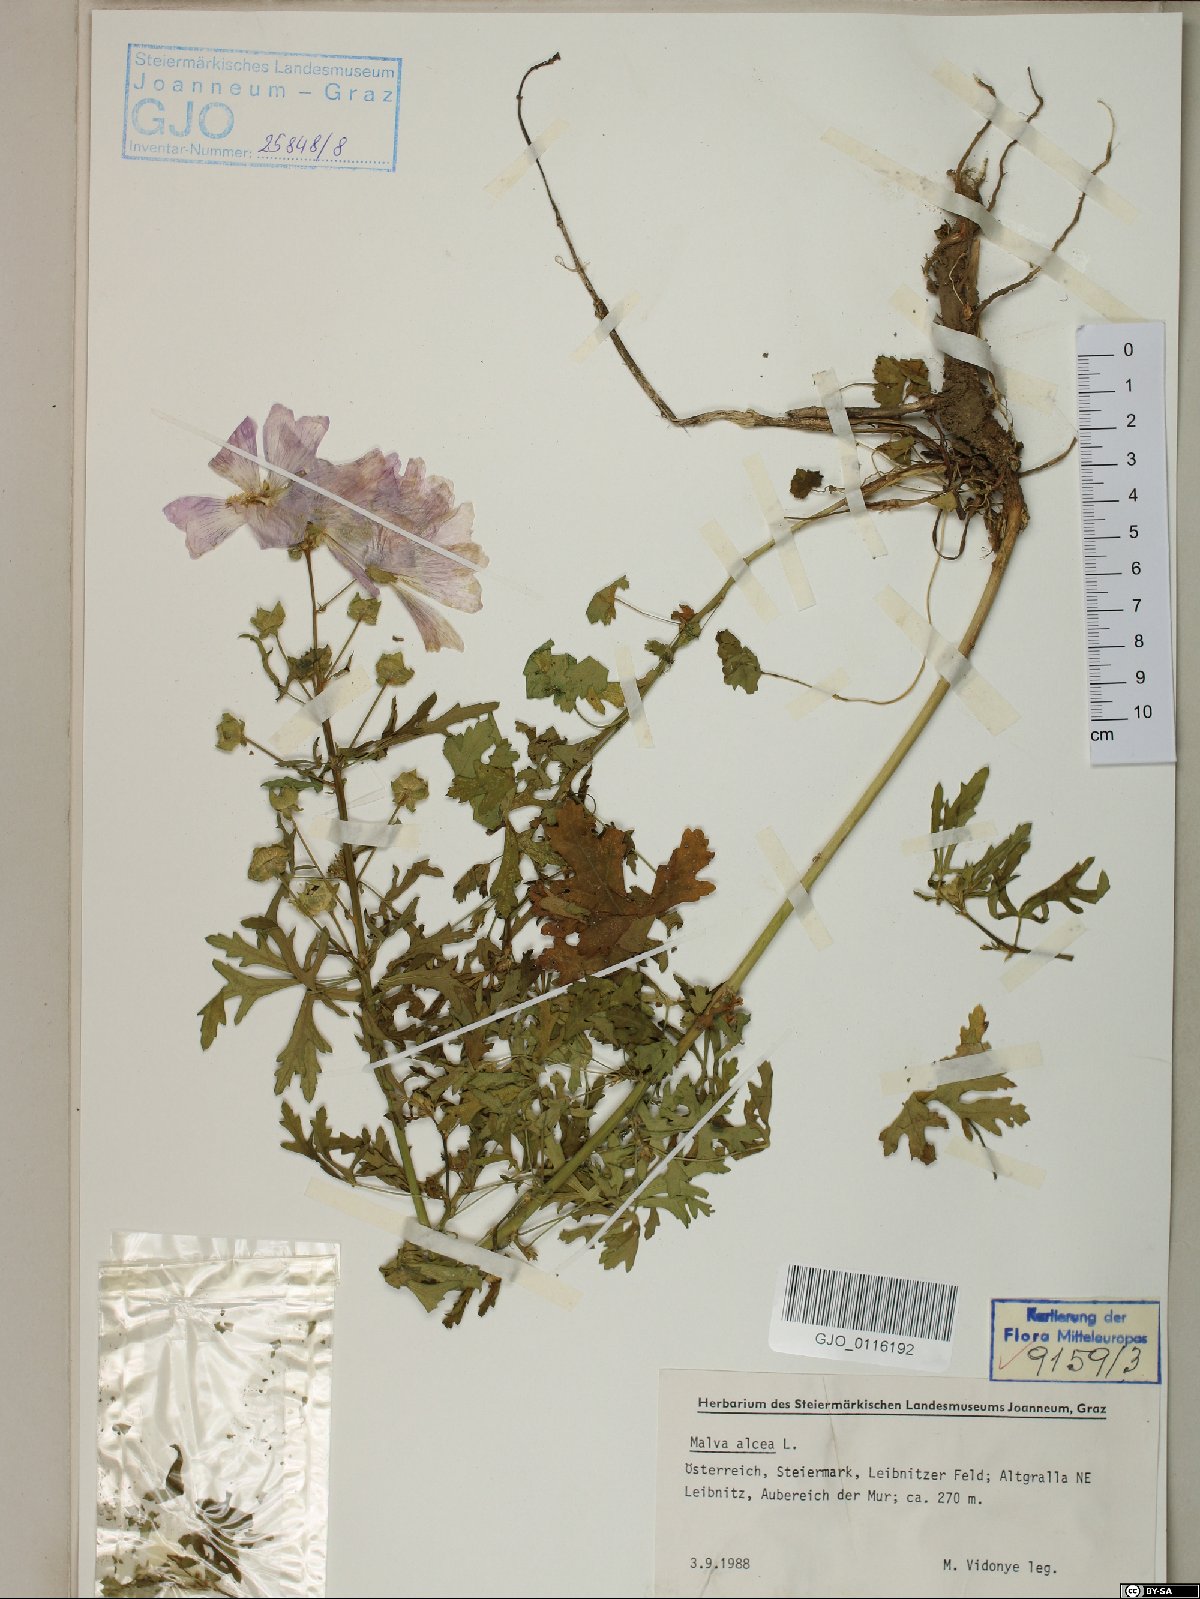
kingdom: Plantae
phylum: Tracheophyta
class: Magnoliopsida
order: Malvales
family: Malvaceae
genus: Malva
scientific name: Malva alcea
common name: Greater musk-mallow
